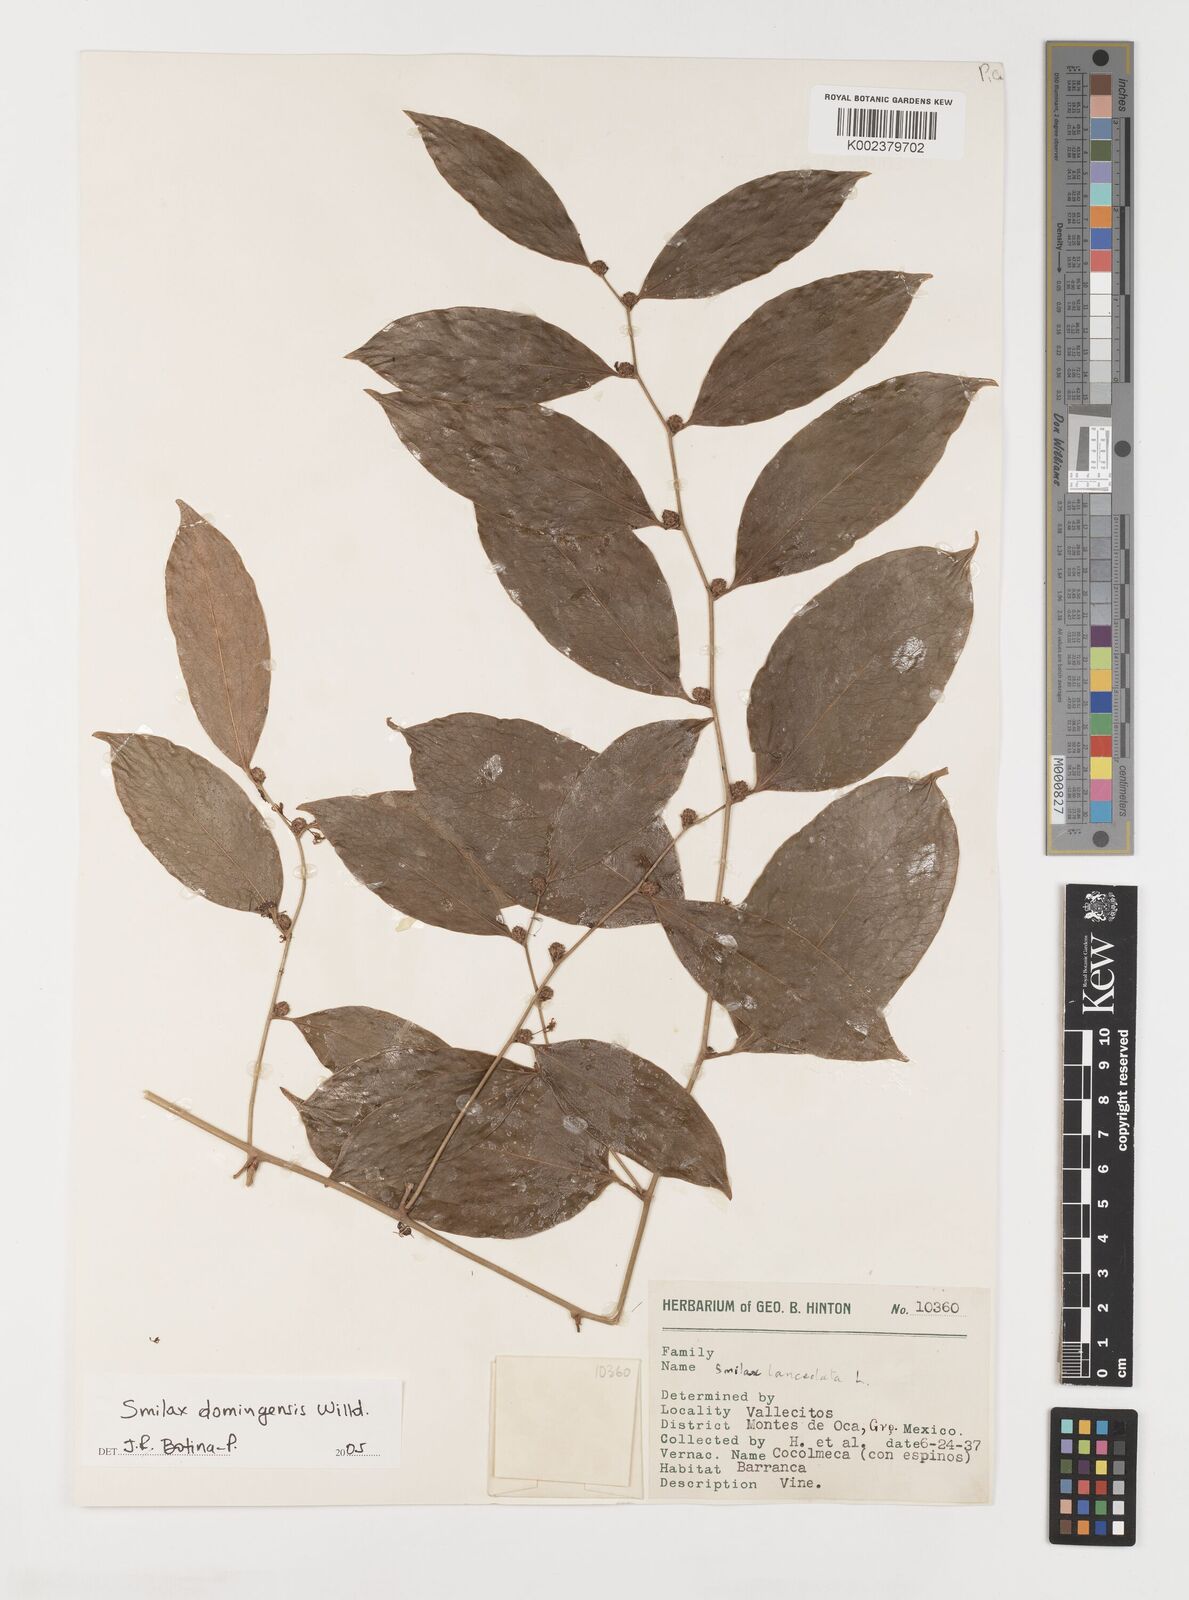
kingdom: Plantae
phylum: Tracheophyta
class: Liliopsida
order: Liliales
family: Smilacaceae
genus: Smilax
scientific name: Smilax domingensis
